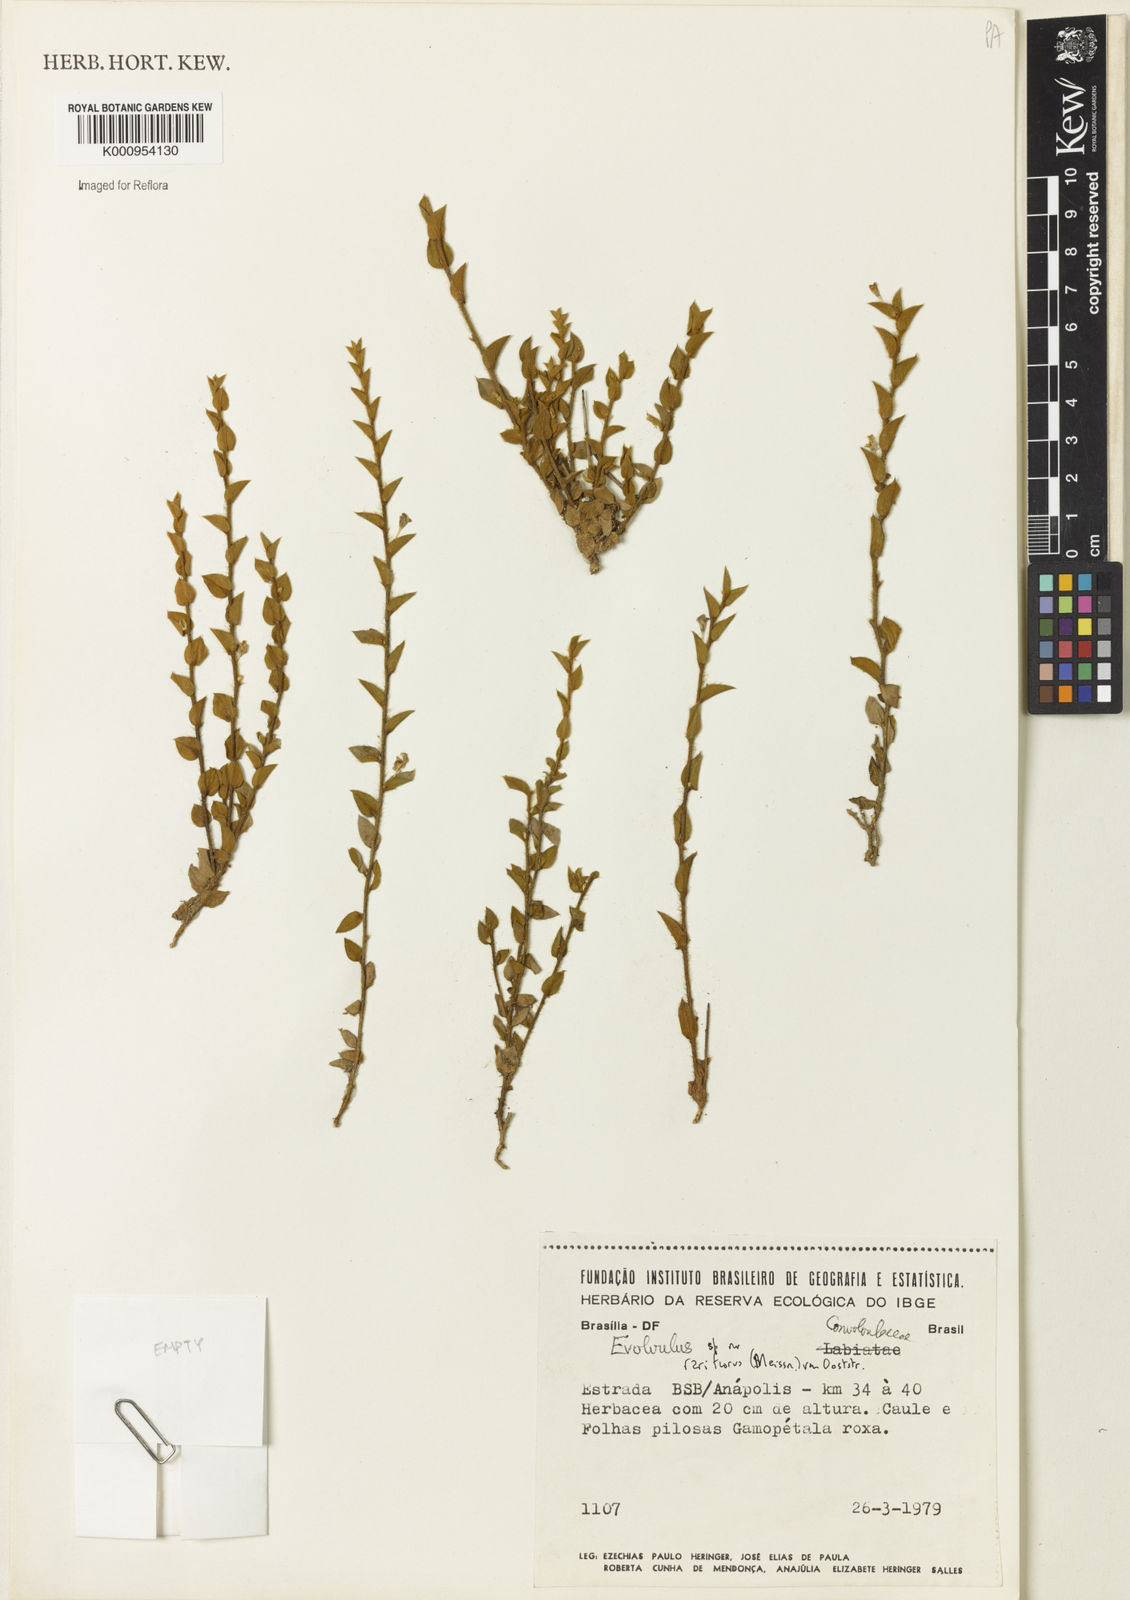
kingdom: Plantae
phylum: Tracheophyta
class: Magnoliopsida
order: Solanales
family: Convolvulaceae
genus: Evolvulus
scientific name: Evolvulus rariflorus
